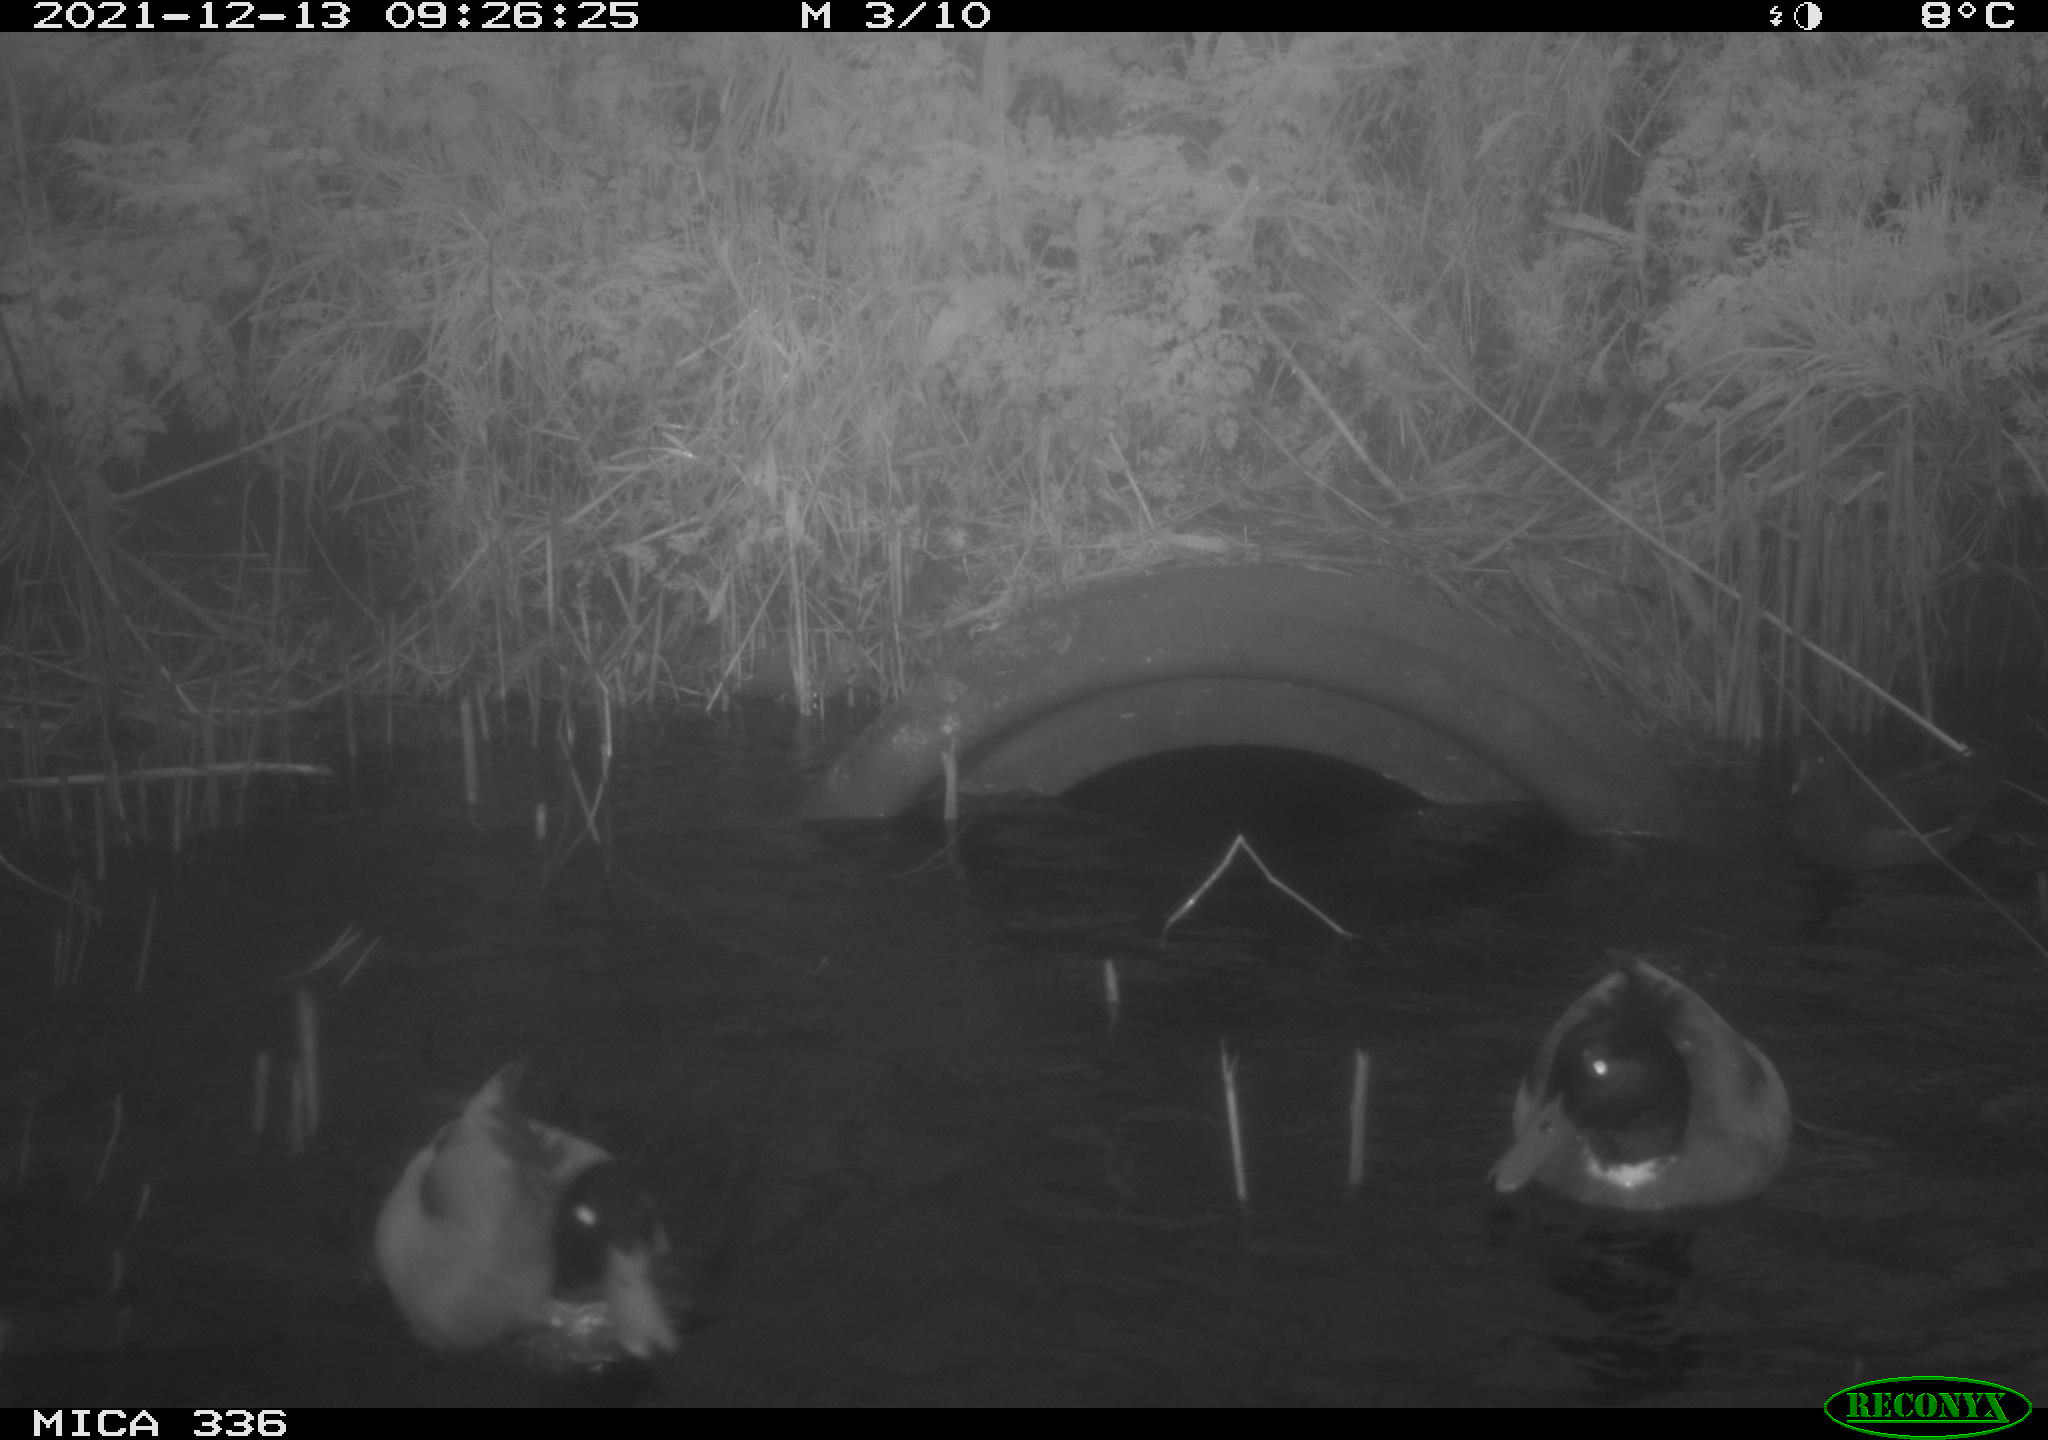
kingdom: Animalia
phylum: Chordata
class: Aves
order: Anseriformes
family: Anatidae
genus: Anas
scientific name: Anas platyrhynchos
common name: Mallard
